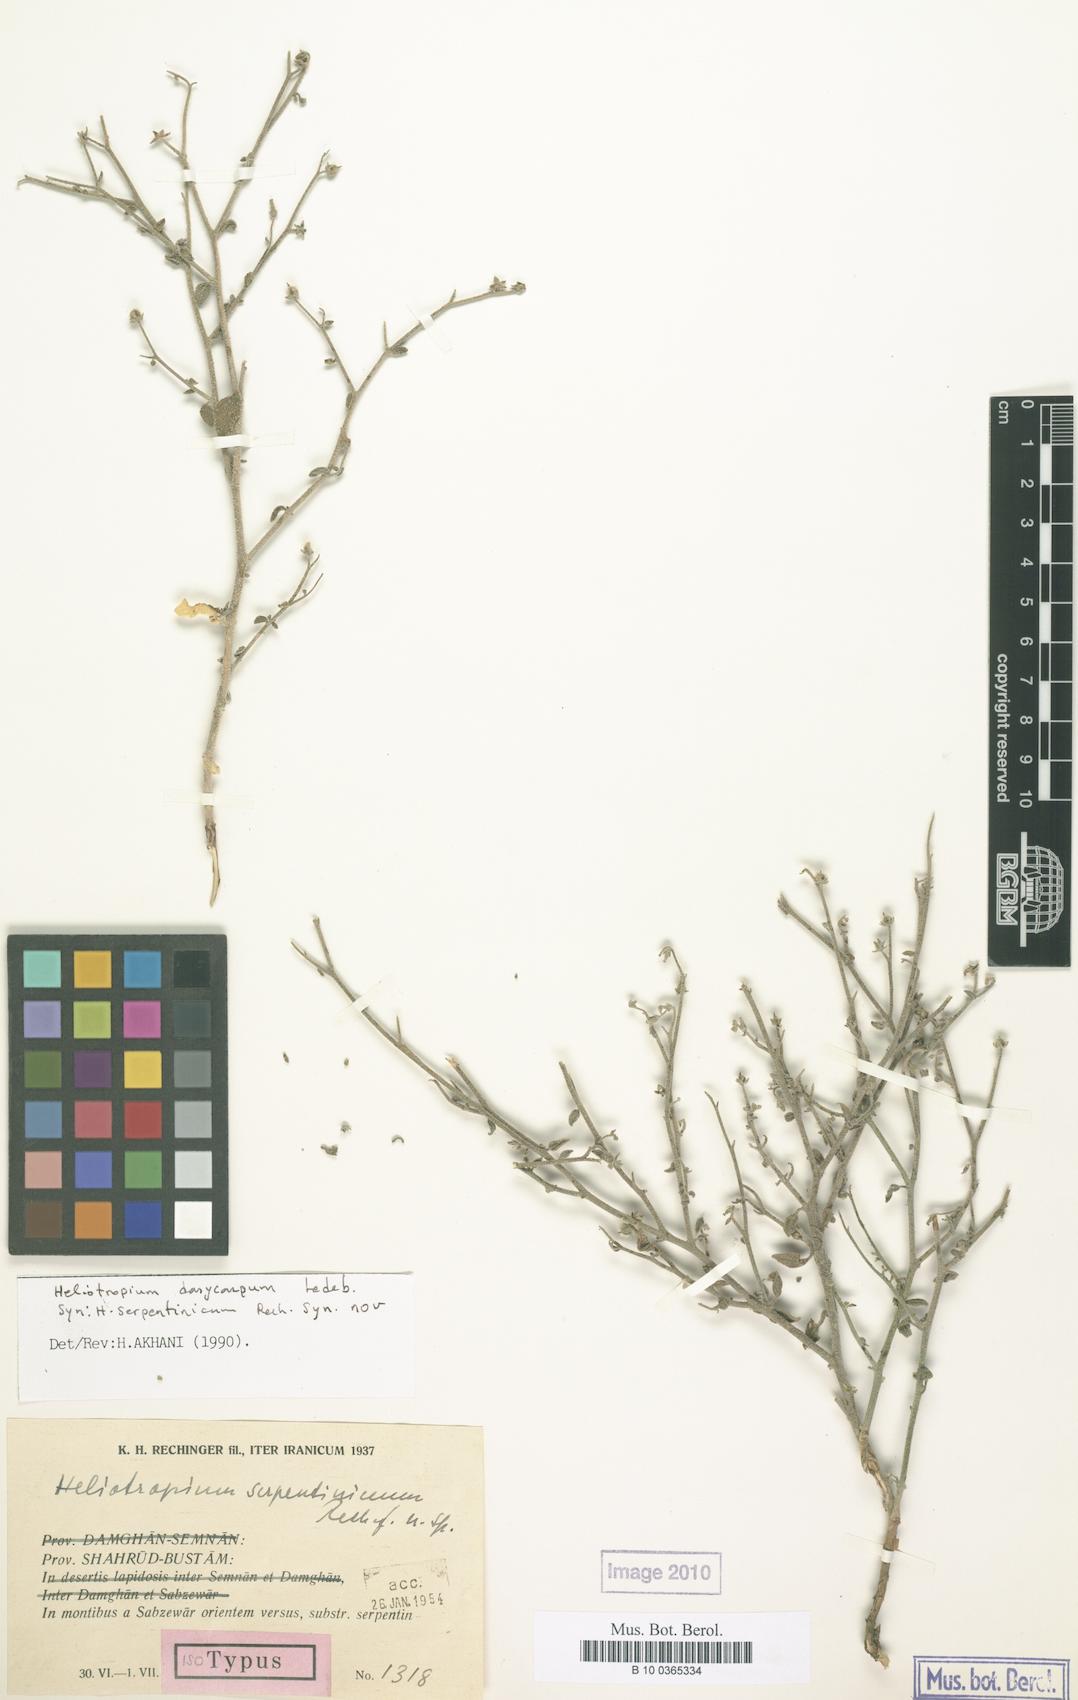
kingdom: Plantae
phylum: Tracheophyta
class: Magnoliopsida
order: Boraginales
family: Heliotropiaceae
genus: Heliotropium
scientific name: Heliotropium dasycarpum
